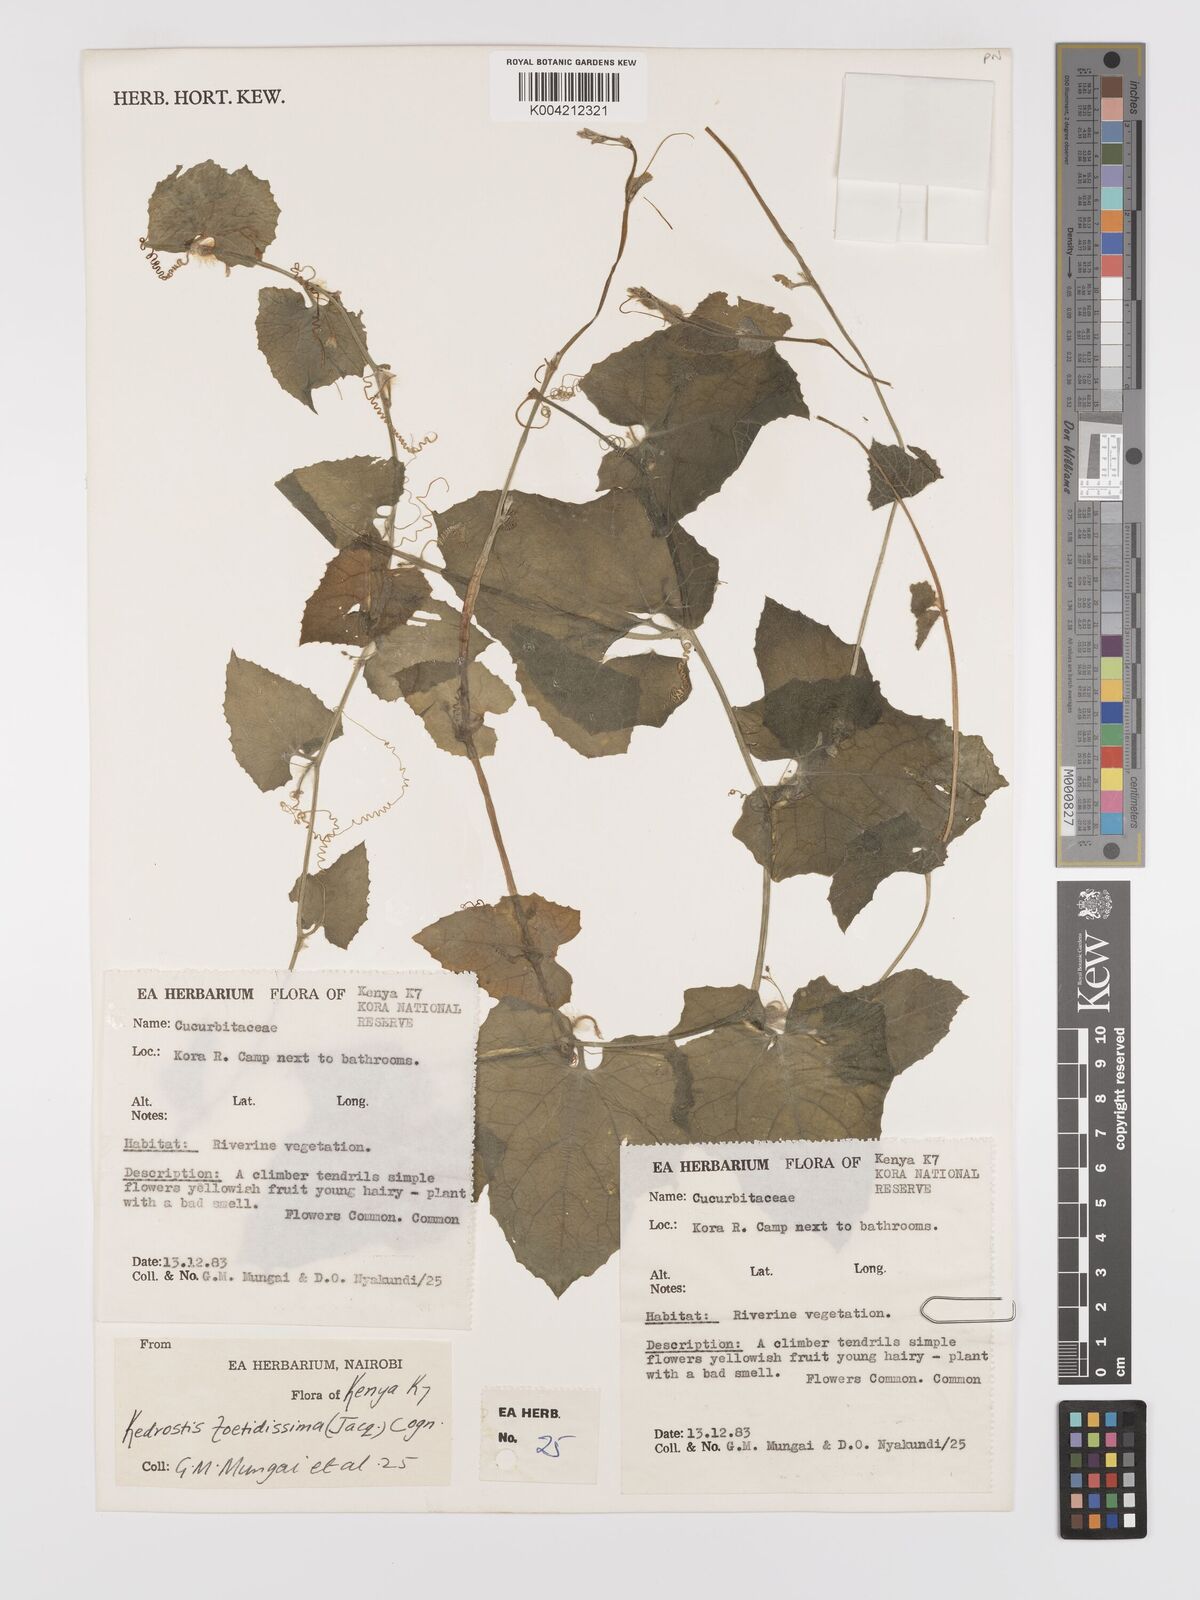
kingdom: Plantae
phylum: Tracheophyta
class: Magnoliopsida
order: Cucurbitales
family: Cucurbitaceae
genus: Kedrostis
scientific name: Kedrostis foetidissima
